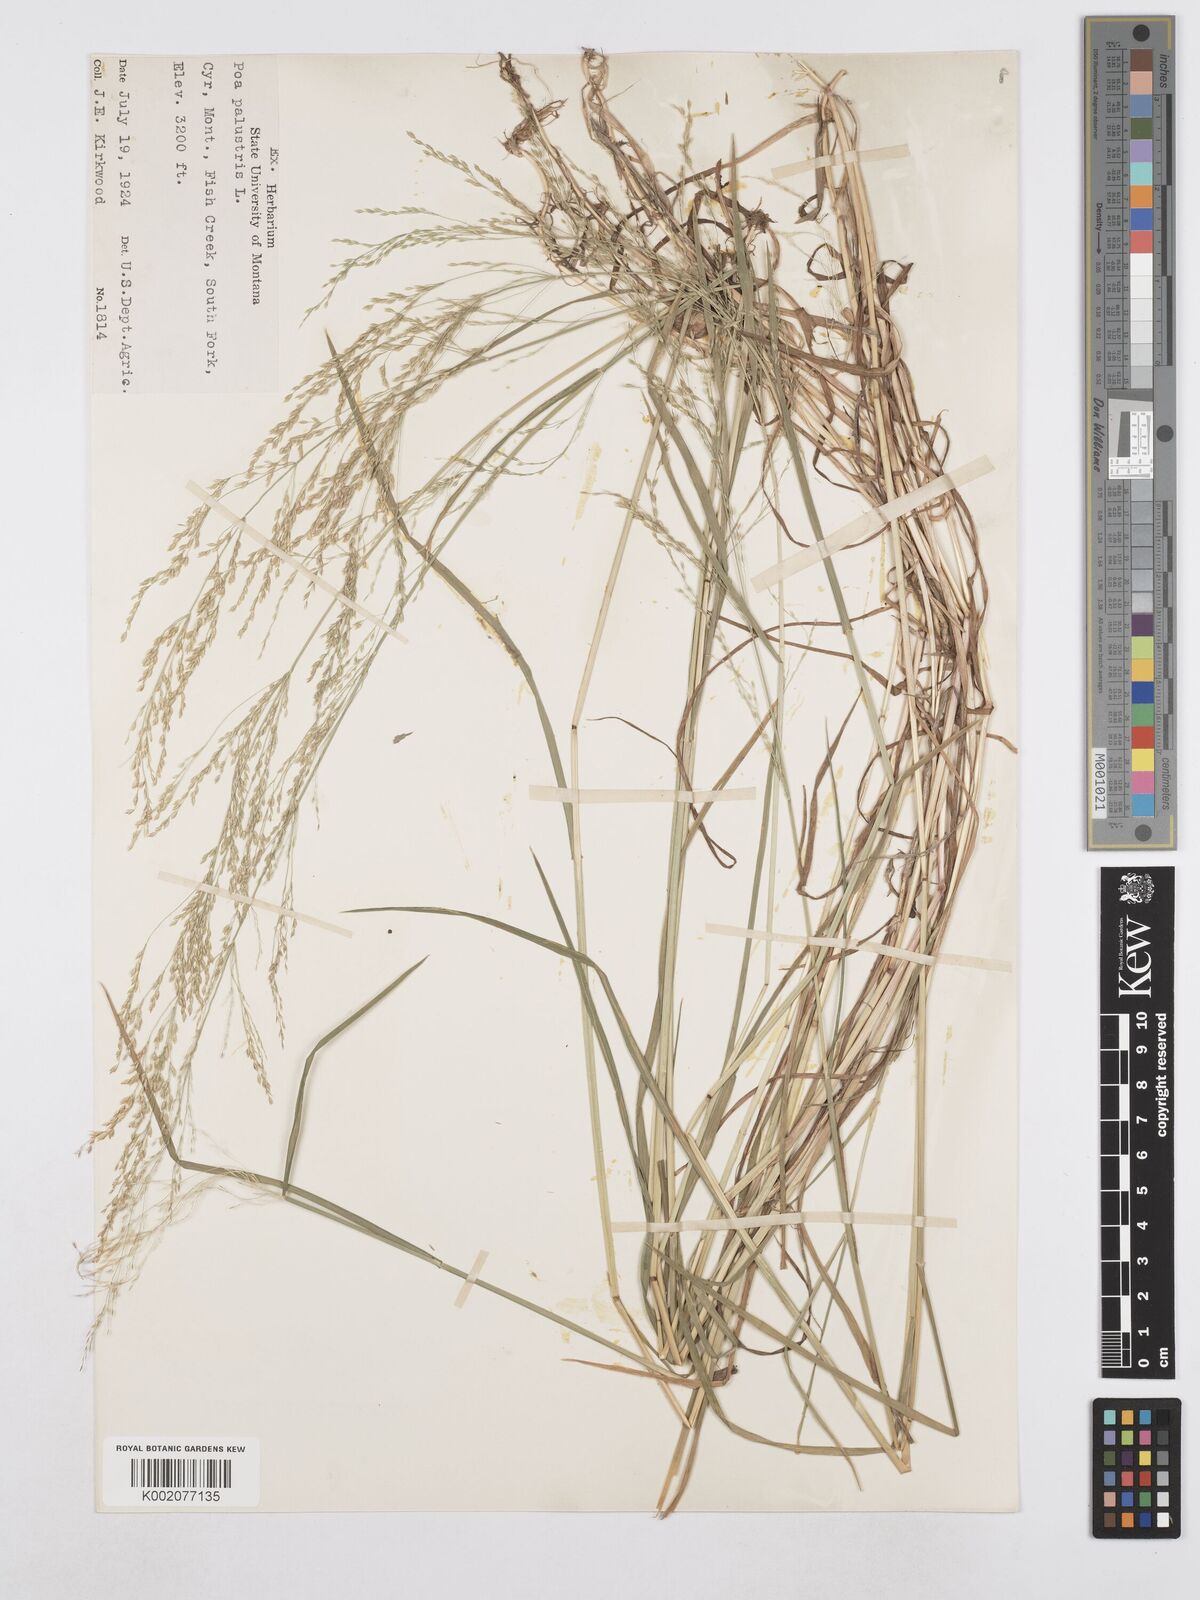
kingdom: Plantae
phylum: Tracheophyta
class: Liliopsida
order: Poales
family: Poaceae
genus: Poa
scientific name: Poa palustris
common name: Swamp meadow-grass
